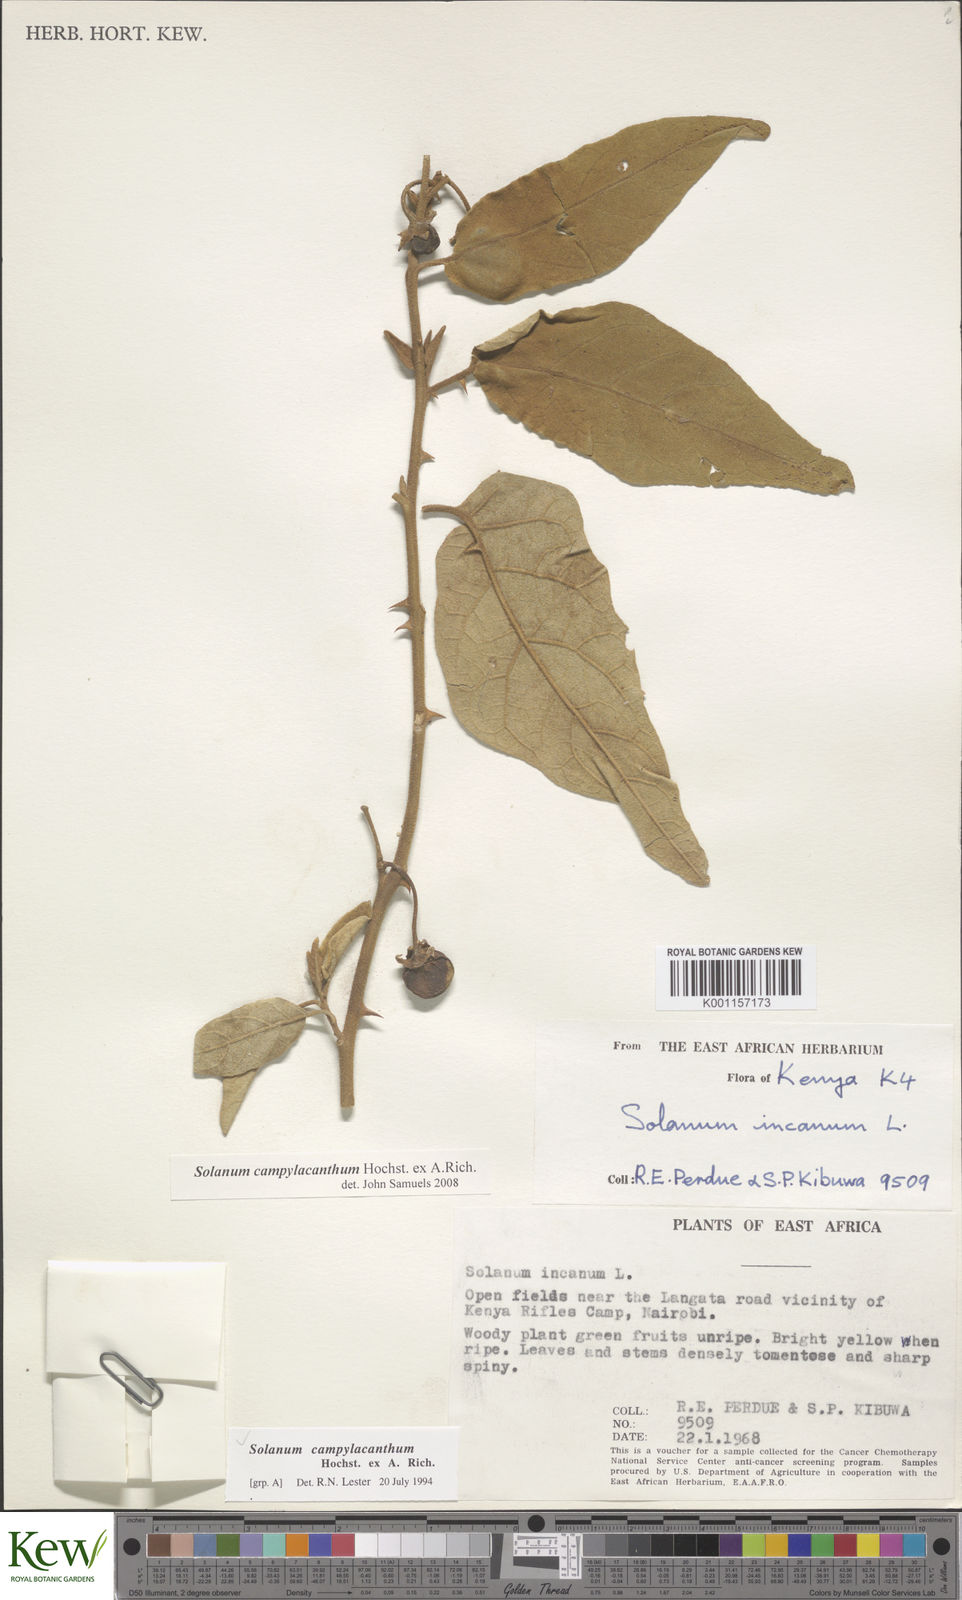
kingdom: Plantae
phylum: Tracheophyta
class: Magnoliopsida
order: Solanales
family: Solanaceae
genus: Solanum
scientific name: Solanum campylacanthum
